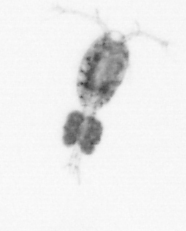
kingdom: Animalia
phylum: Arthropoda
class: Copepoda
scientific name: Copepoda
